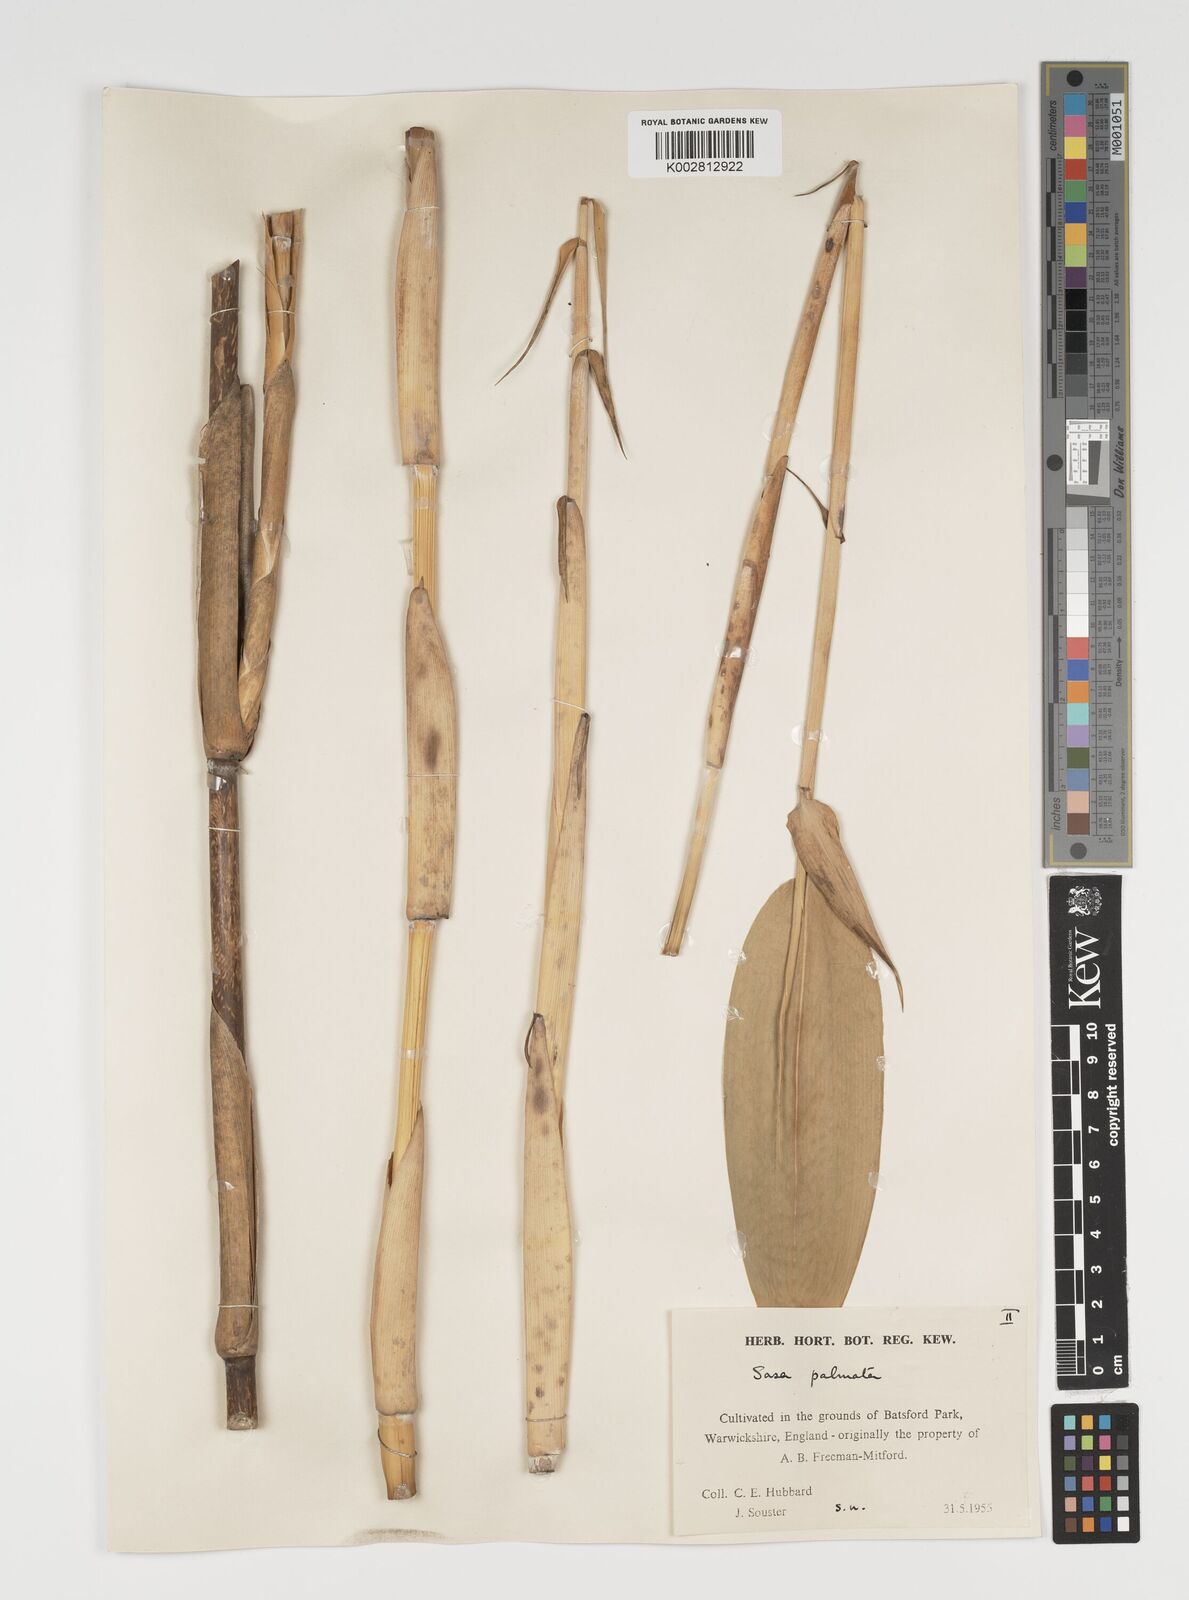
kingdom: Plantae
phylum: Tracheophyta
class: Liliopsida
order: Poales
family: Poaceae
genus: Sasa
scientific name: Sasa palmata
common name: Broad-leaved bamboo
